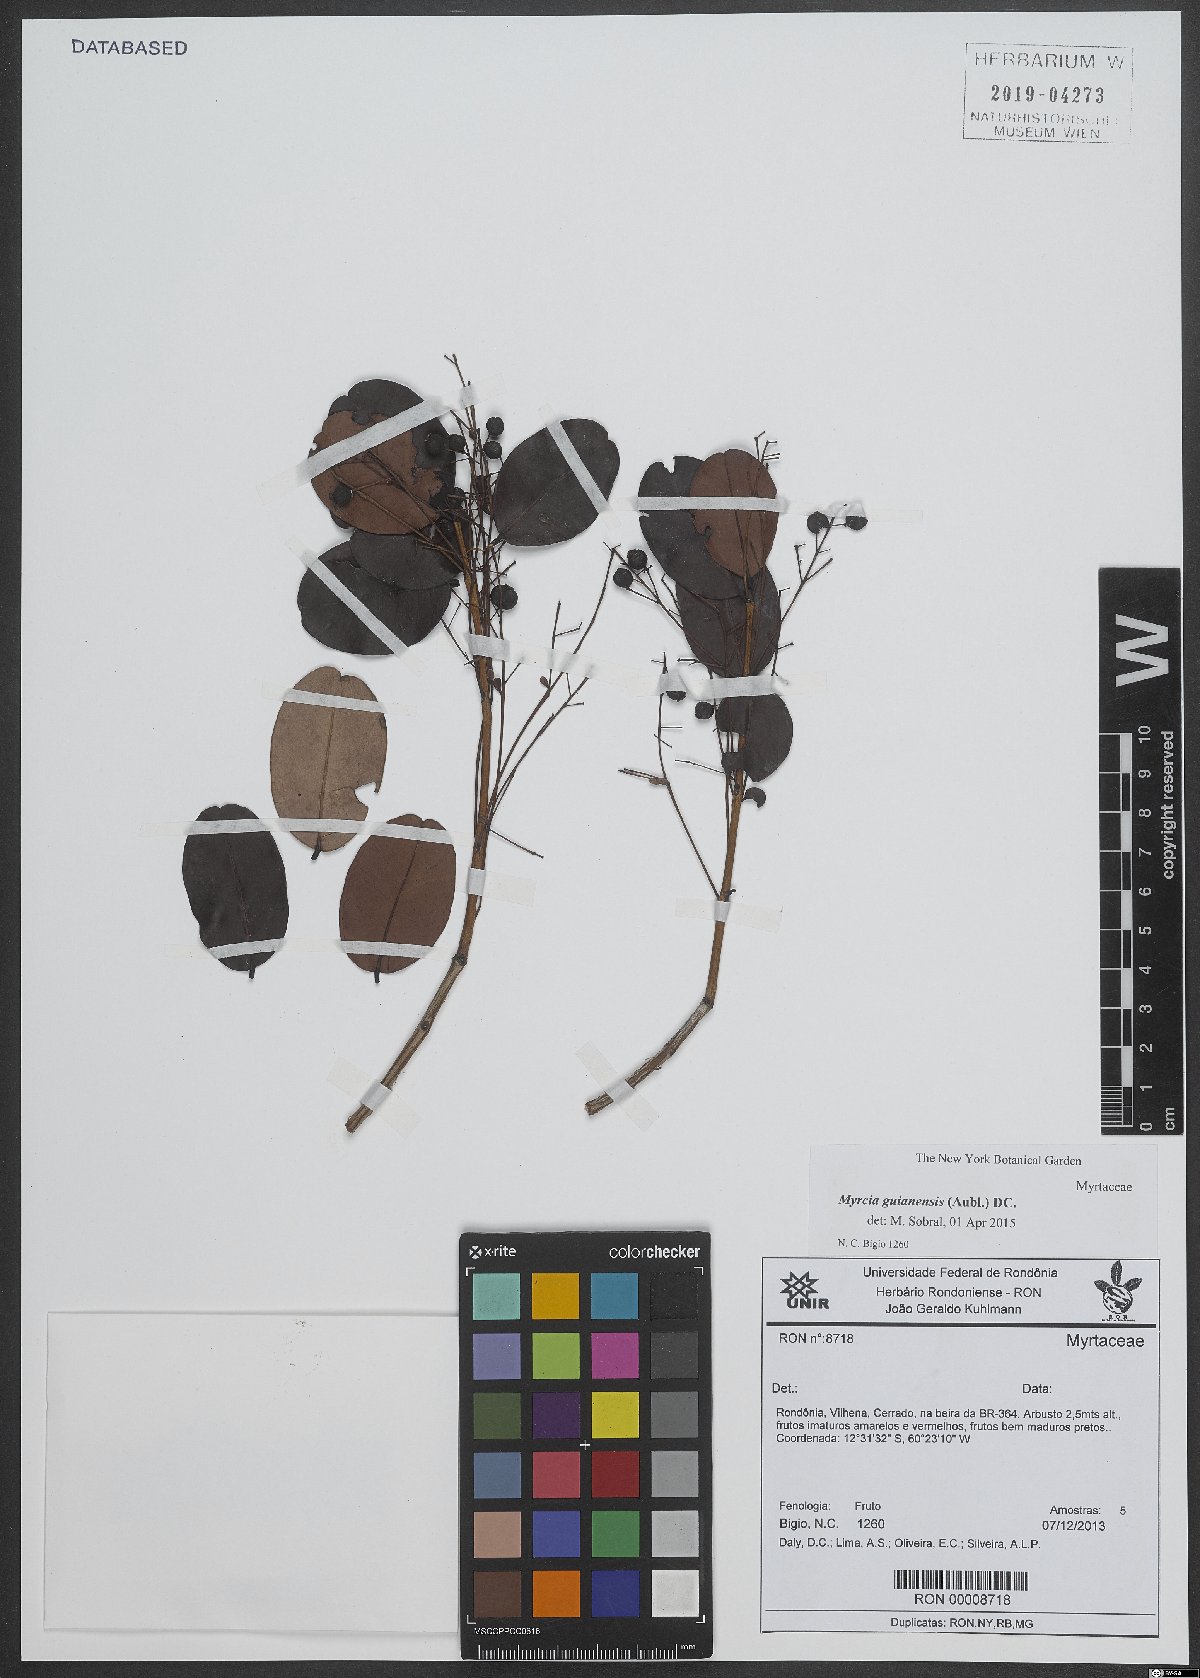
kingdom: Plantae
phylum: Tracheophyta
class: Magnoliopsida
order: Myrtales
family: Myrtaceae
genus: Myrcia
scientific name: Myrcia guianensis
